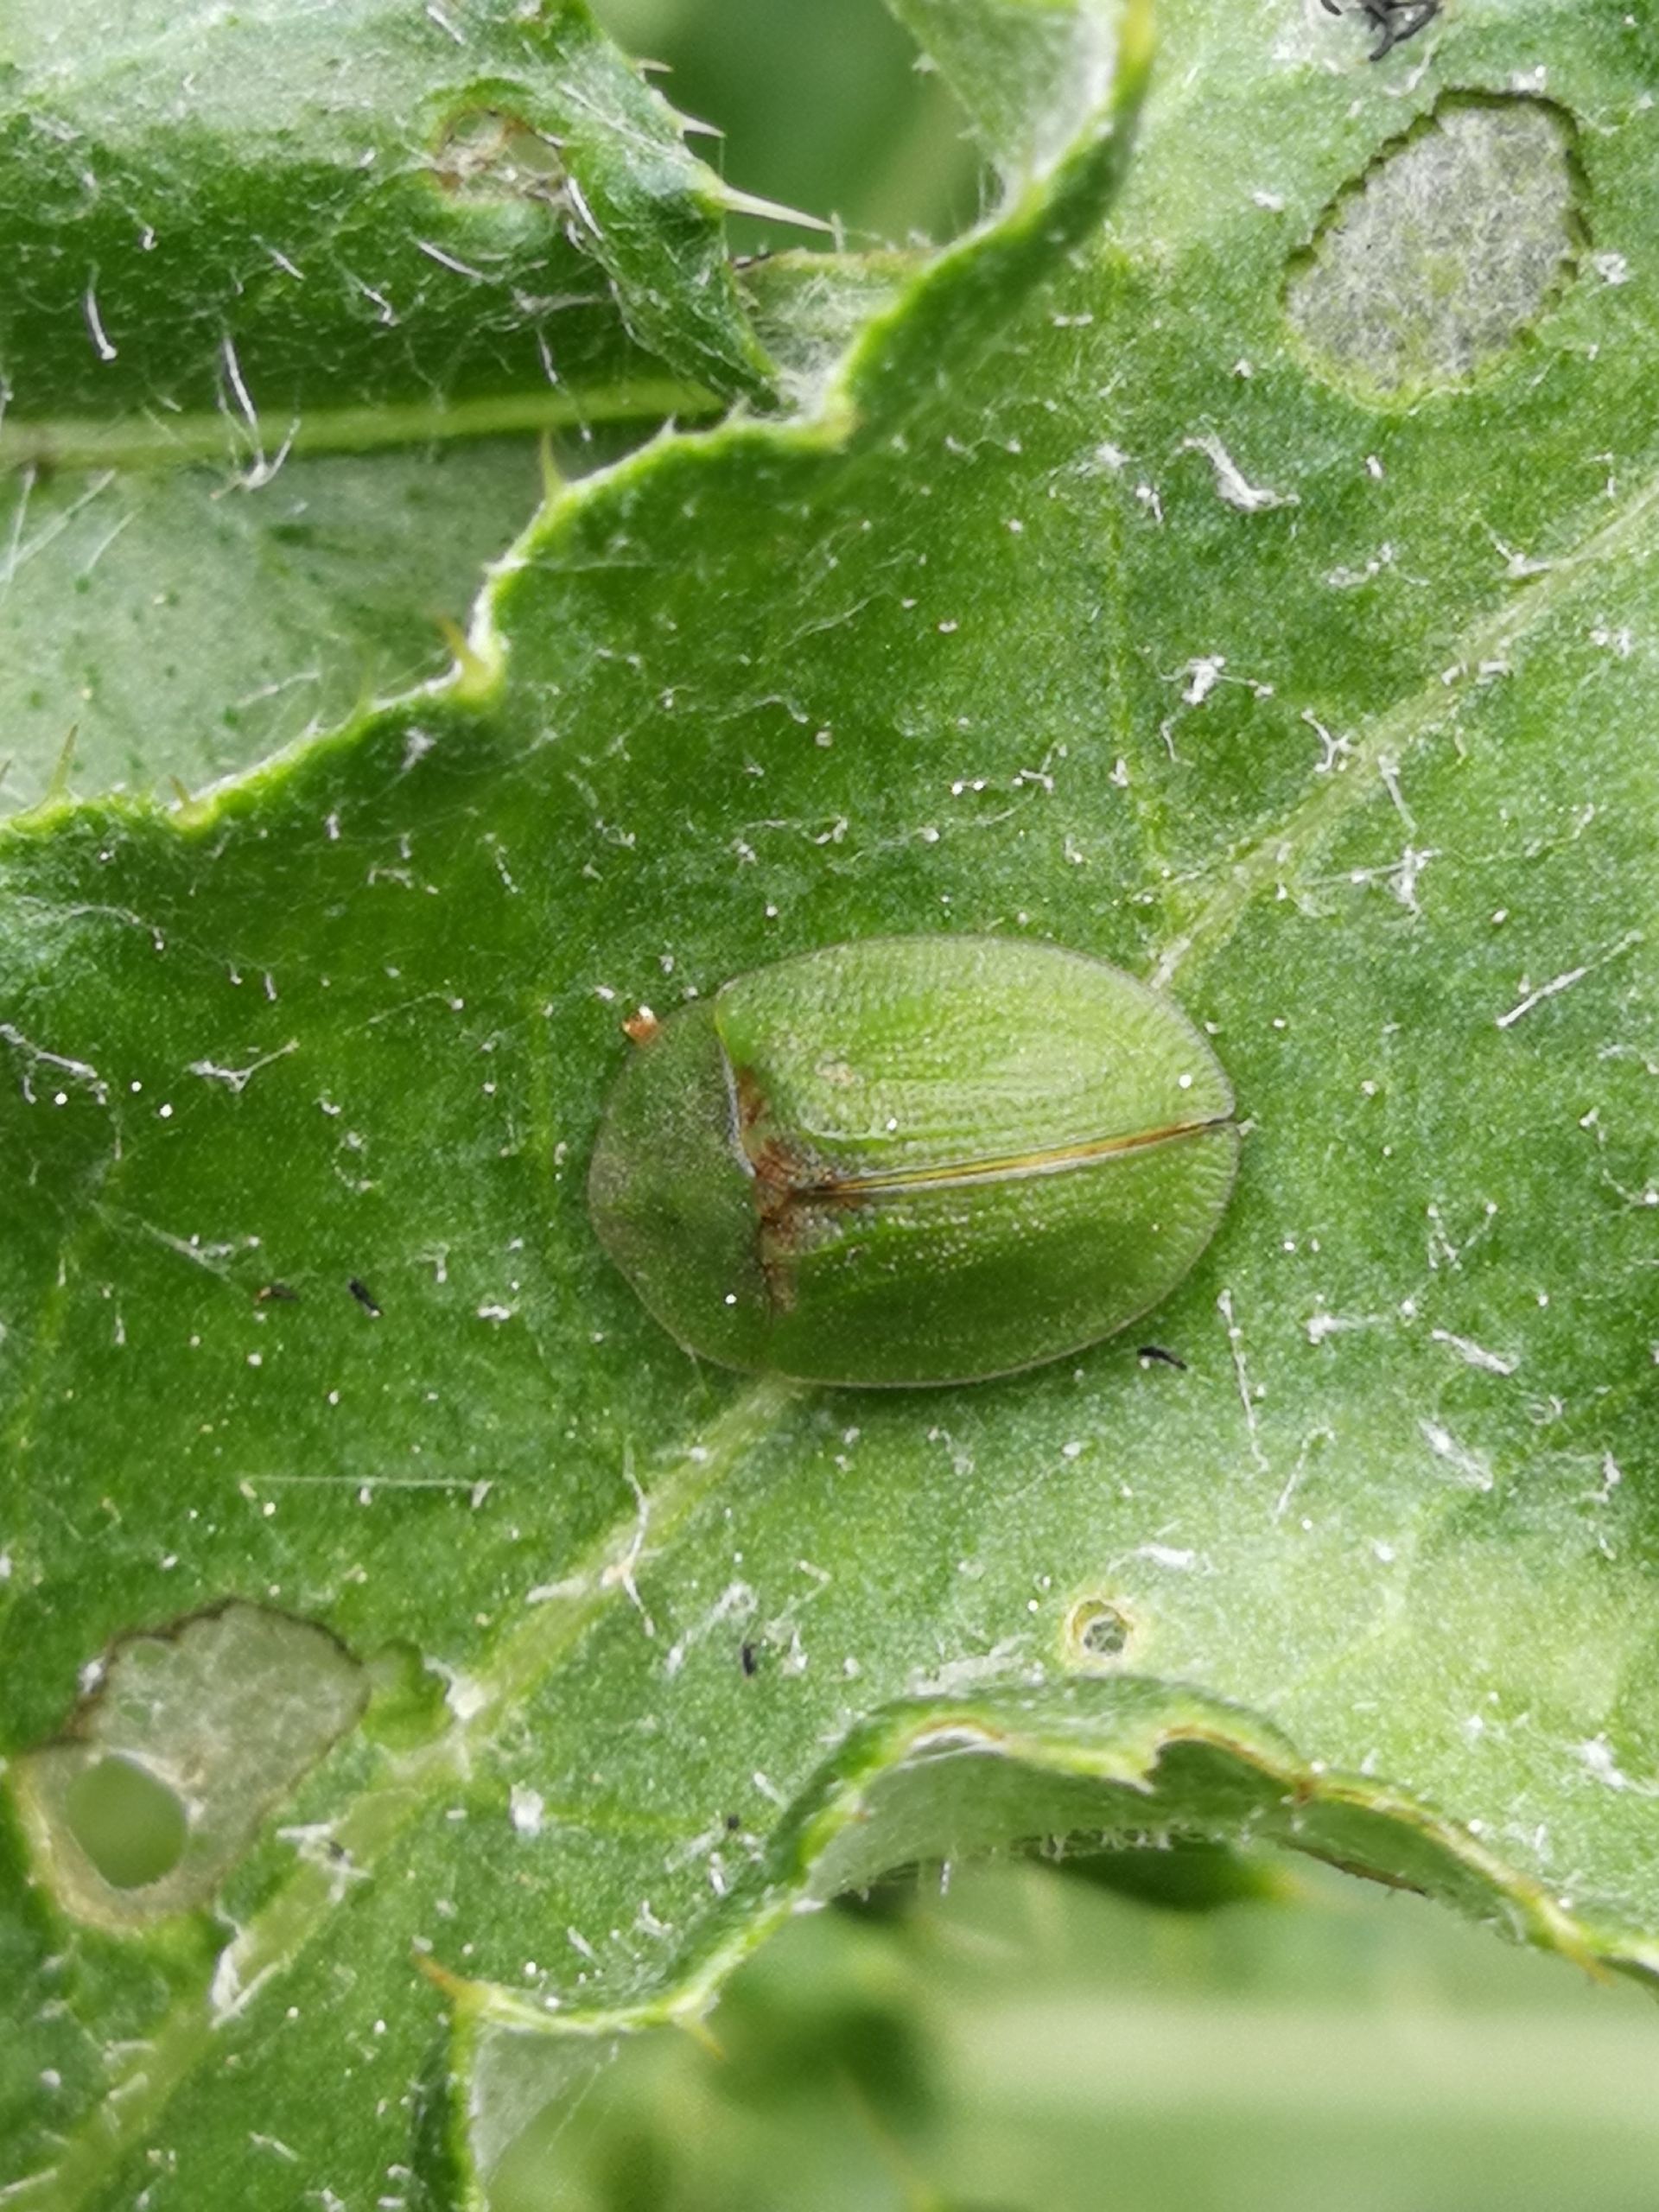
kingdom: Animalia
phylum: Arthropoda
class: Insecta
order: Coleoptera
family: Chrysomelidae
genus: Cassida
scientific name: Cassida rubiginosa
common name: Tidselskjoldbille
